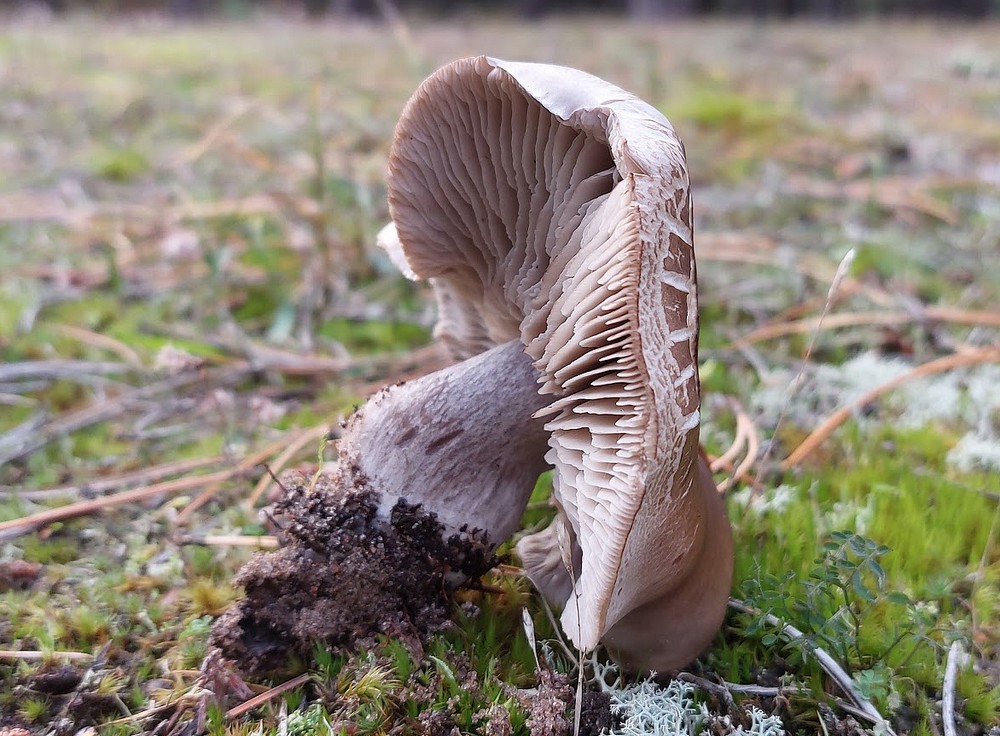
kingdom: Fungi
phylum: Basidiomycota
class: Agaricomycetes
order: Agaricales
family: Tricholomataceae
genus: Tricholoma
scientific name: Tricholoma sudum
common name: tør ridderhat
